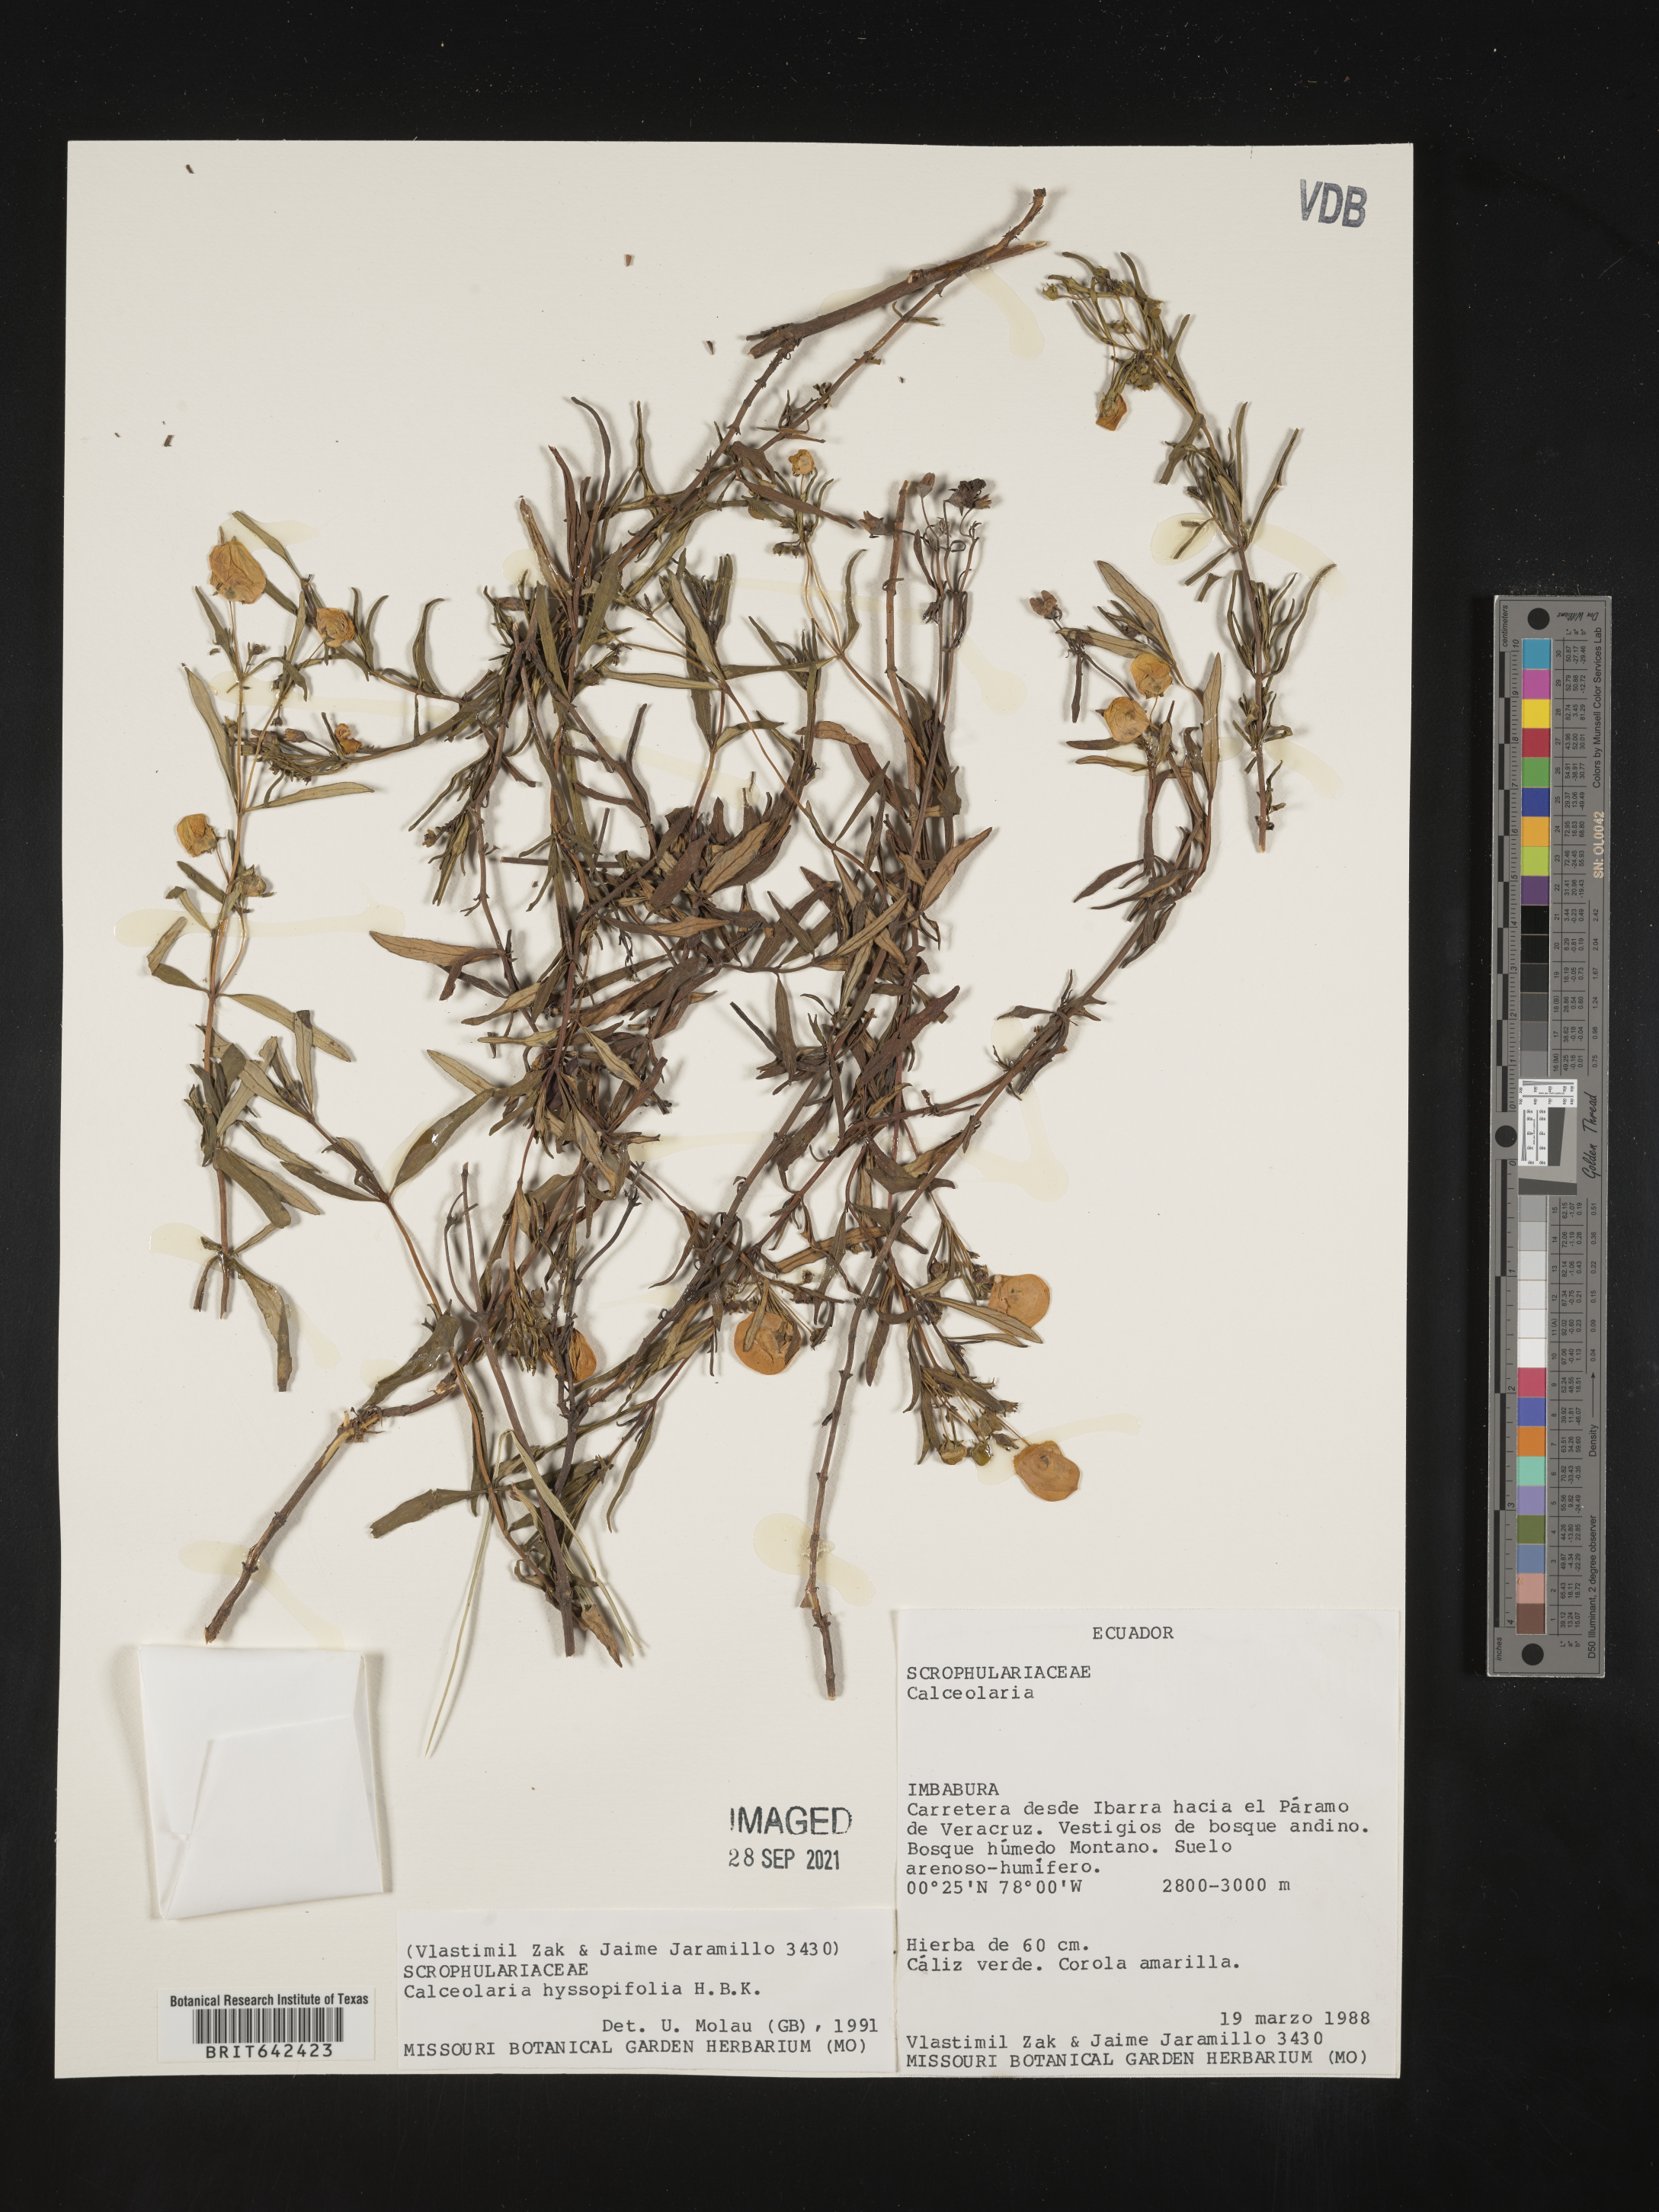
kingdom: Plantae
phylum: Tracheophyta
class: Magnoliopsida
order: Lamiales
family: Calceolariaceae
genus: Calceolaria
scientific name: Calceolaria hyssopifolia
